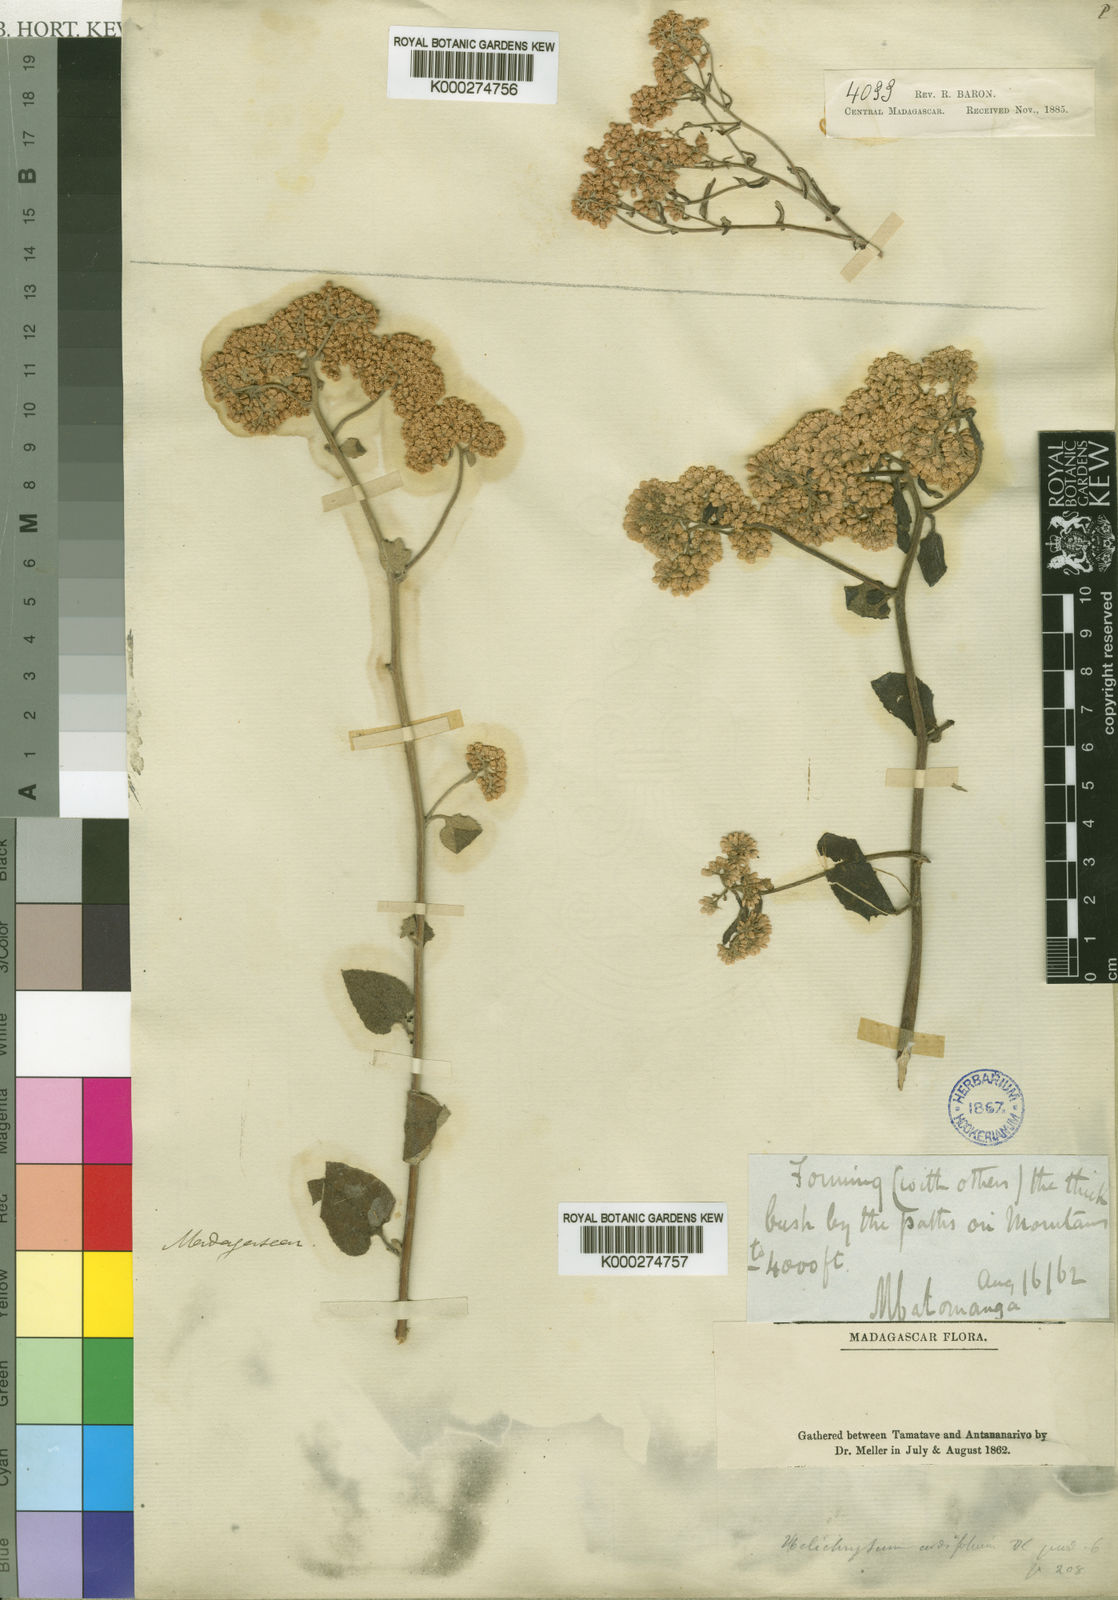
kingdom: Plantae
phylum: Tracheophyta
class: Magnoliopsida
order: Asterales
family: Asteraceae
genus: Helichrysum
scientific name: Helichrysum cordifolium
